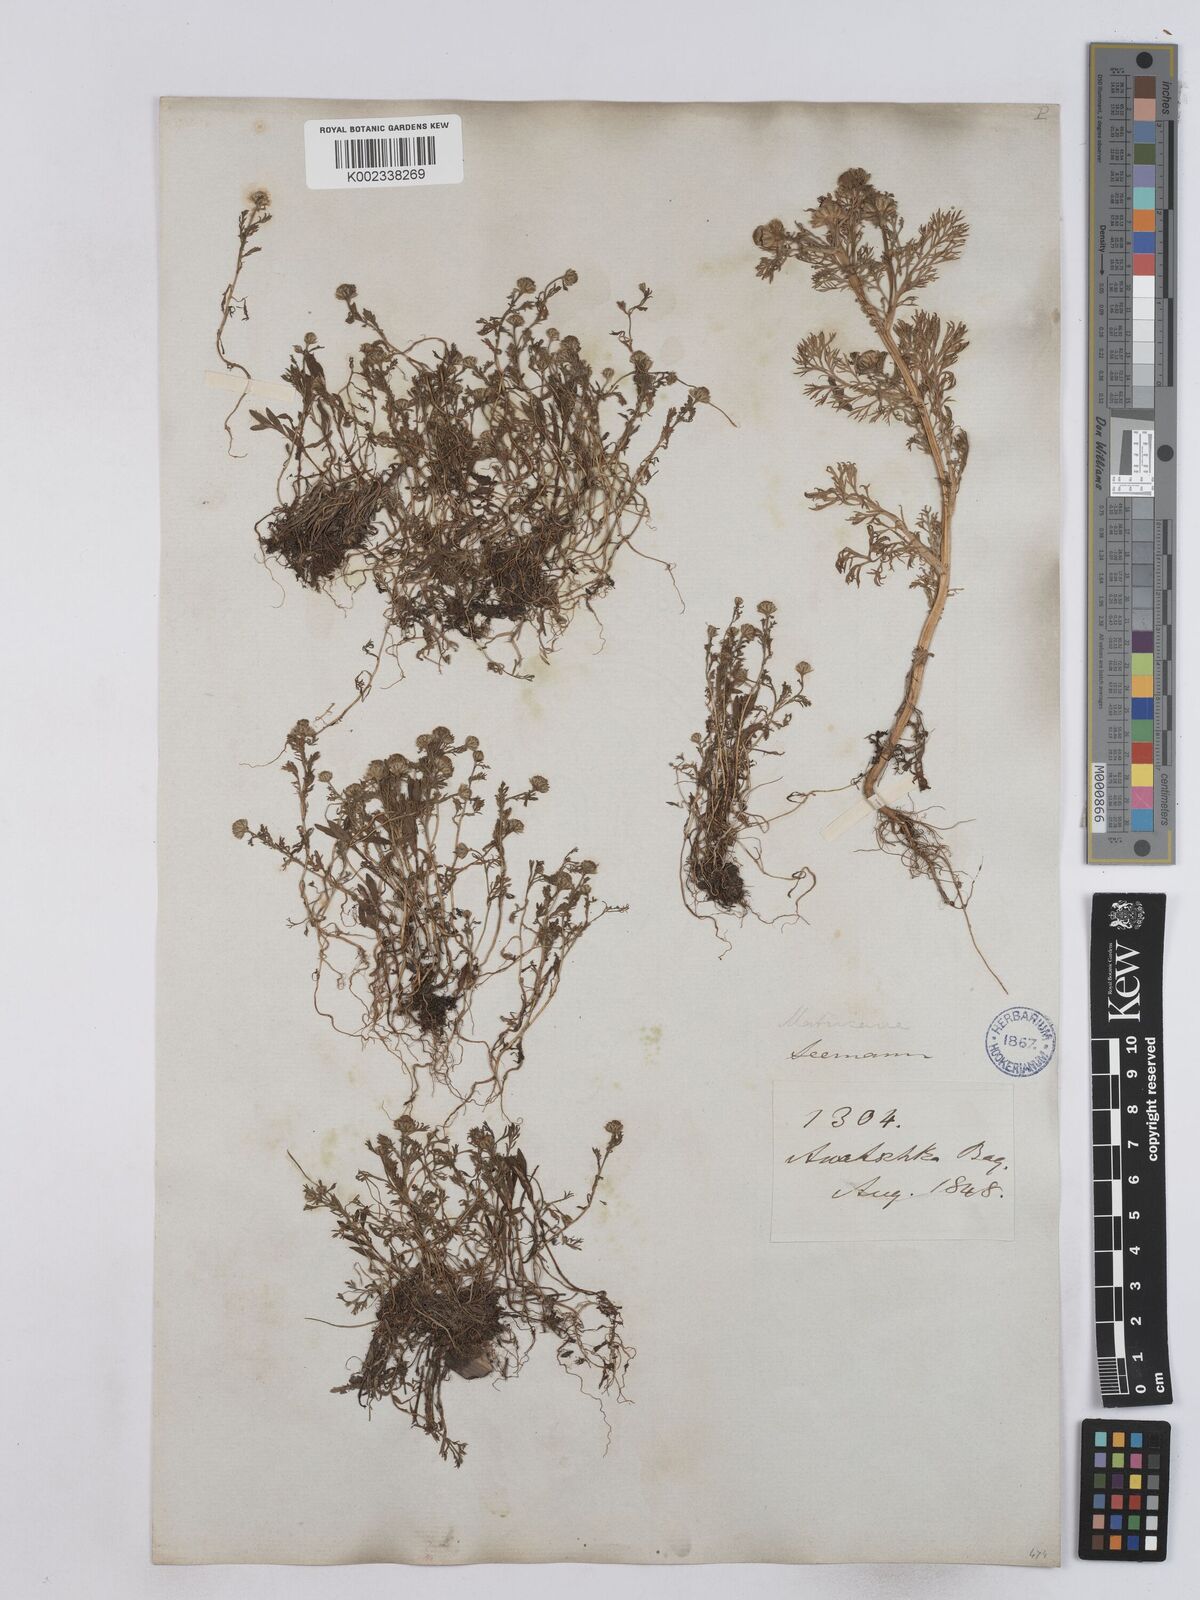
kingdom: Plantae
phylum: Tracheophyta
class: Magnoliopsida
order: Asterales
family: Asteraceae
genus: Matricaria
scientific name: Matricaria
